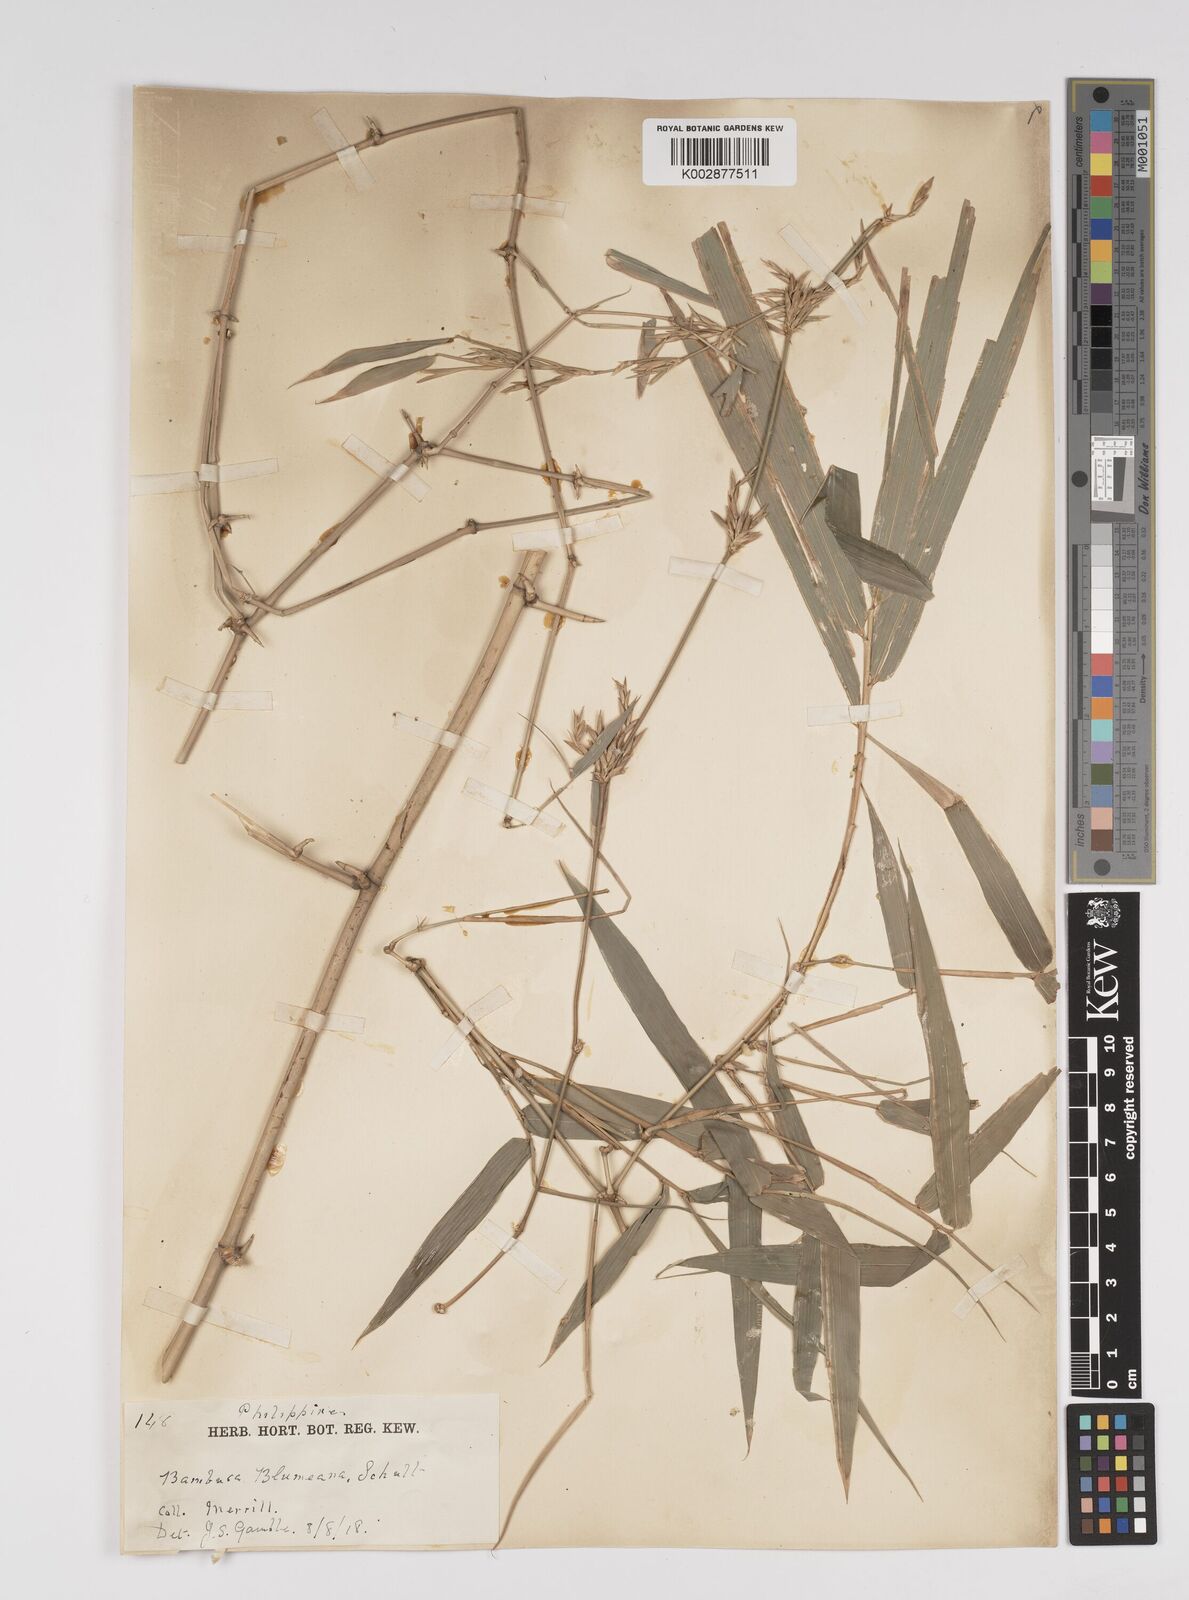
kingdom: Plantae
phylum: Tracheophyta
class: Liliopsida
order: Poales
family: Poaceae
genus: Bambusa
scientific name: Bambusa spinosa
